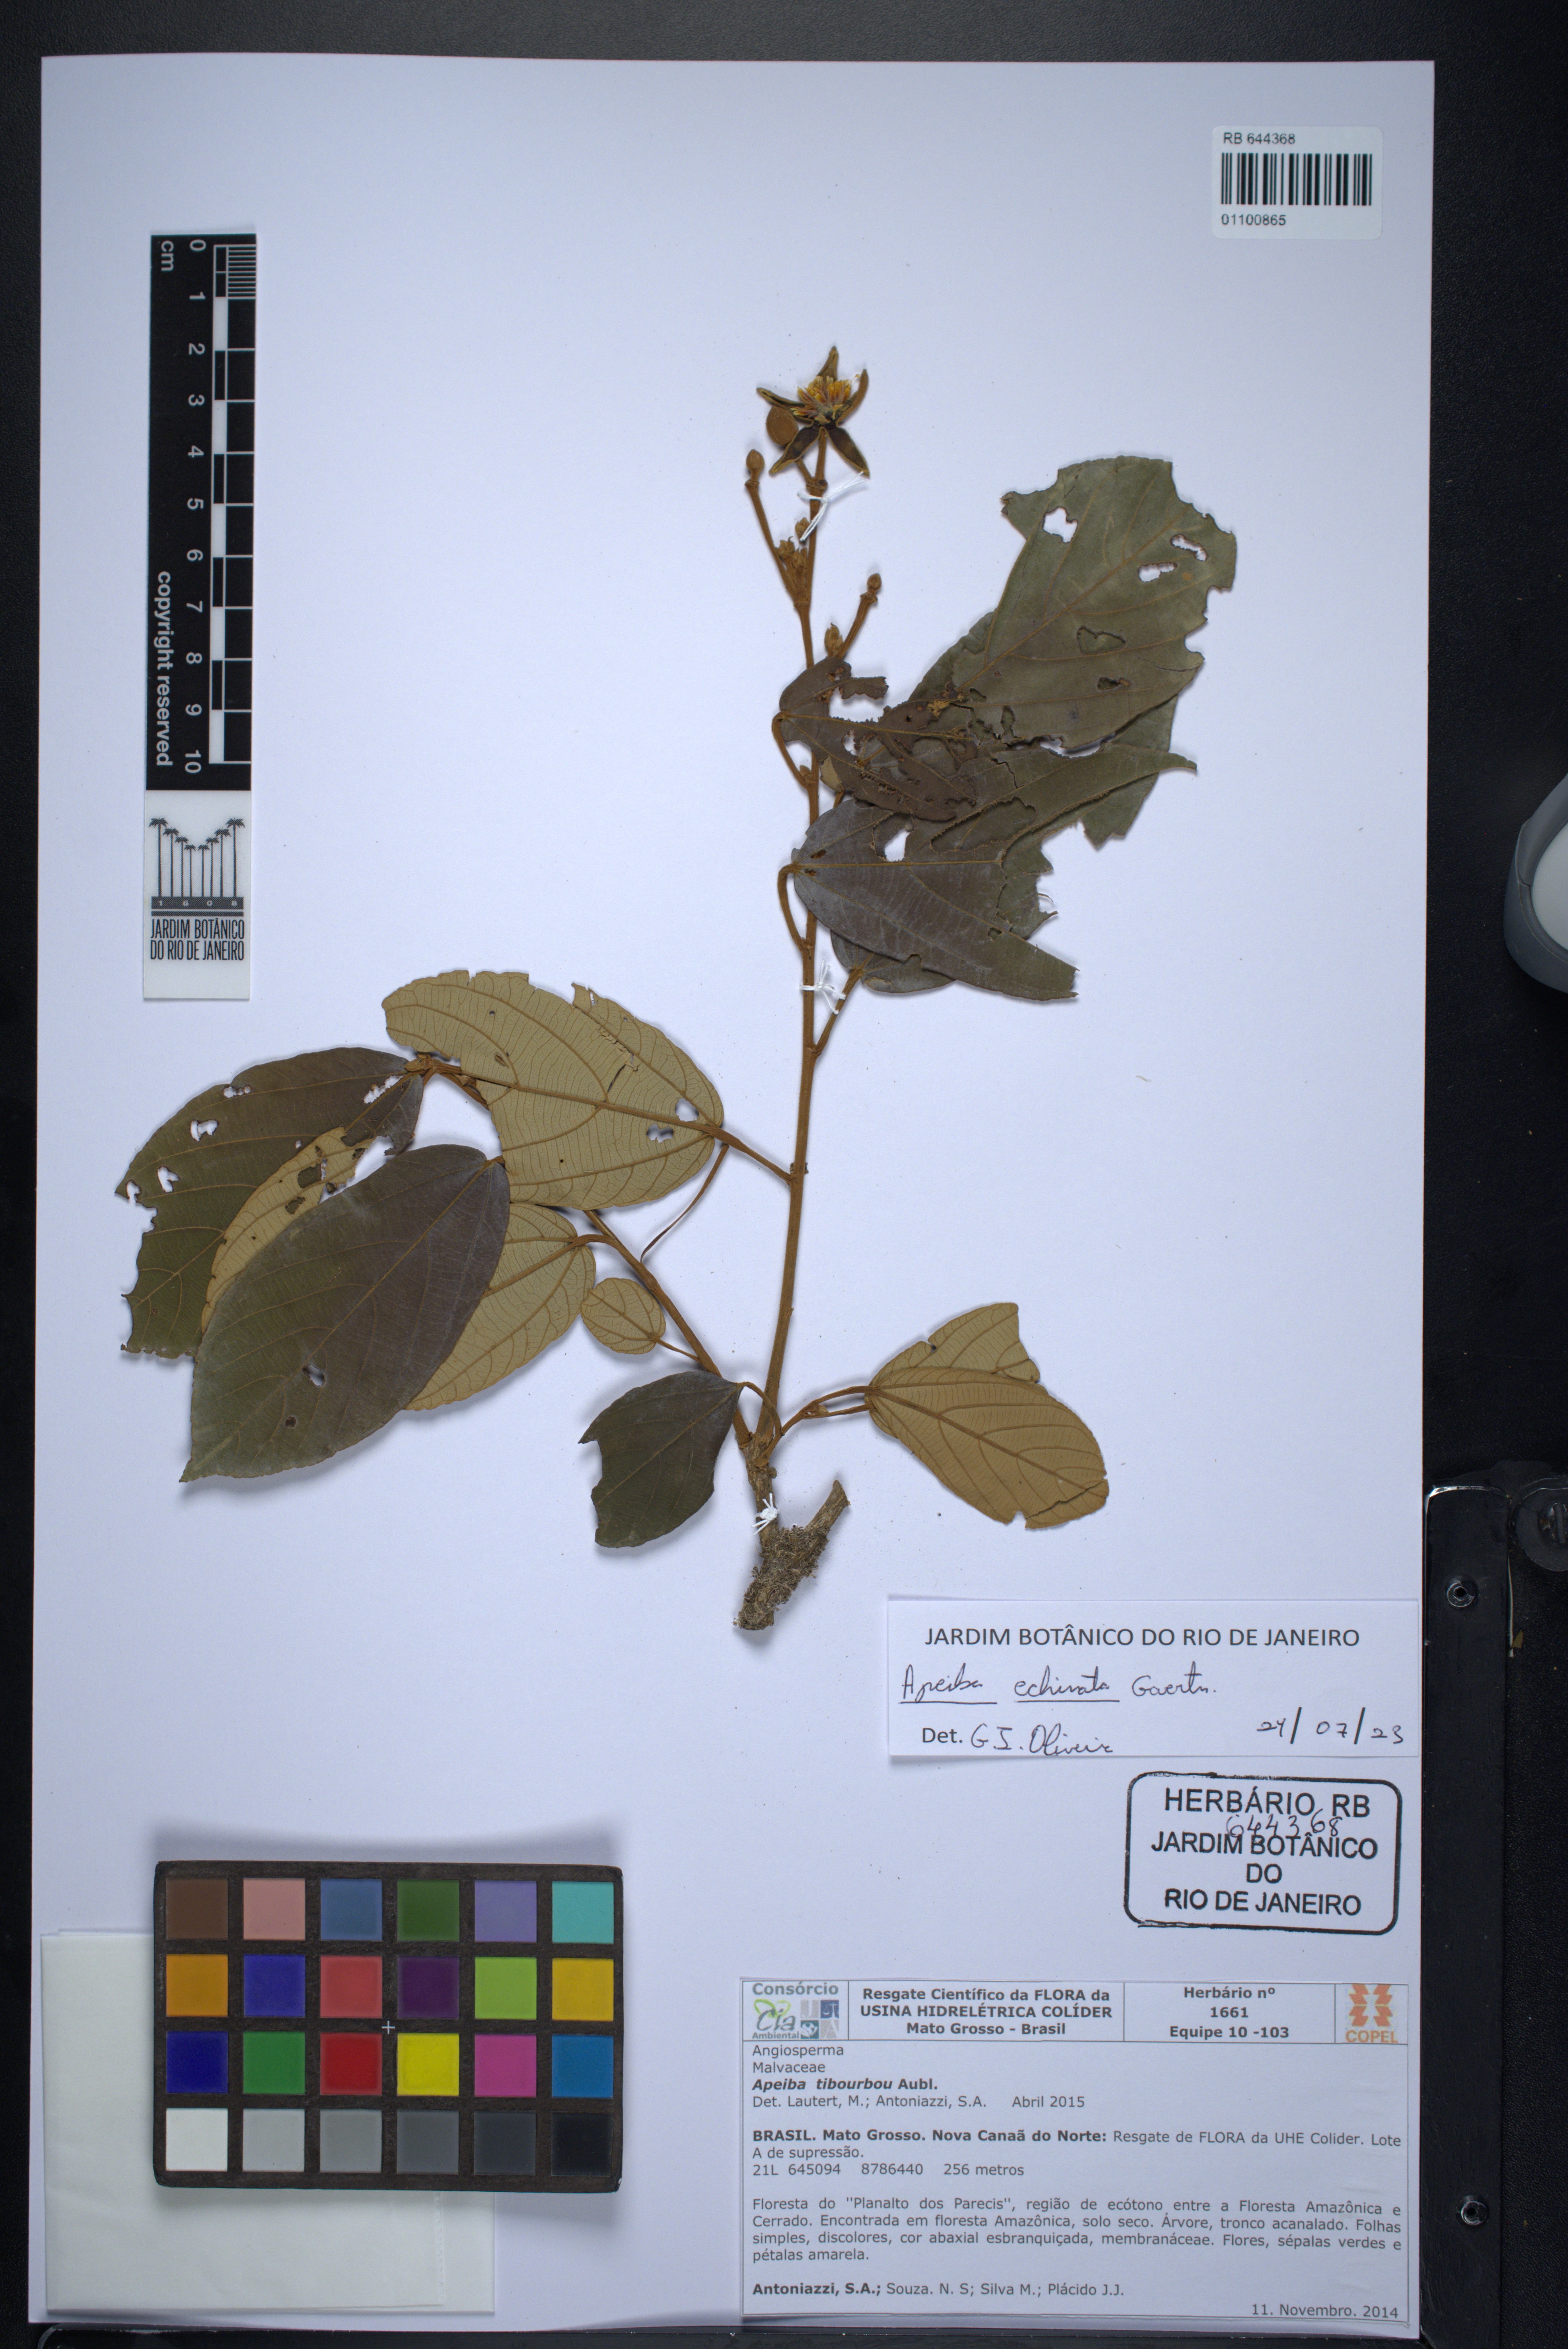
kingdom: Plantae
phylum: Tracheophyta
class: Magnoliopsida
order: Malvales
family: Malvaceae
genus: Apeiba
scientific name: Apeiba petoumo
